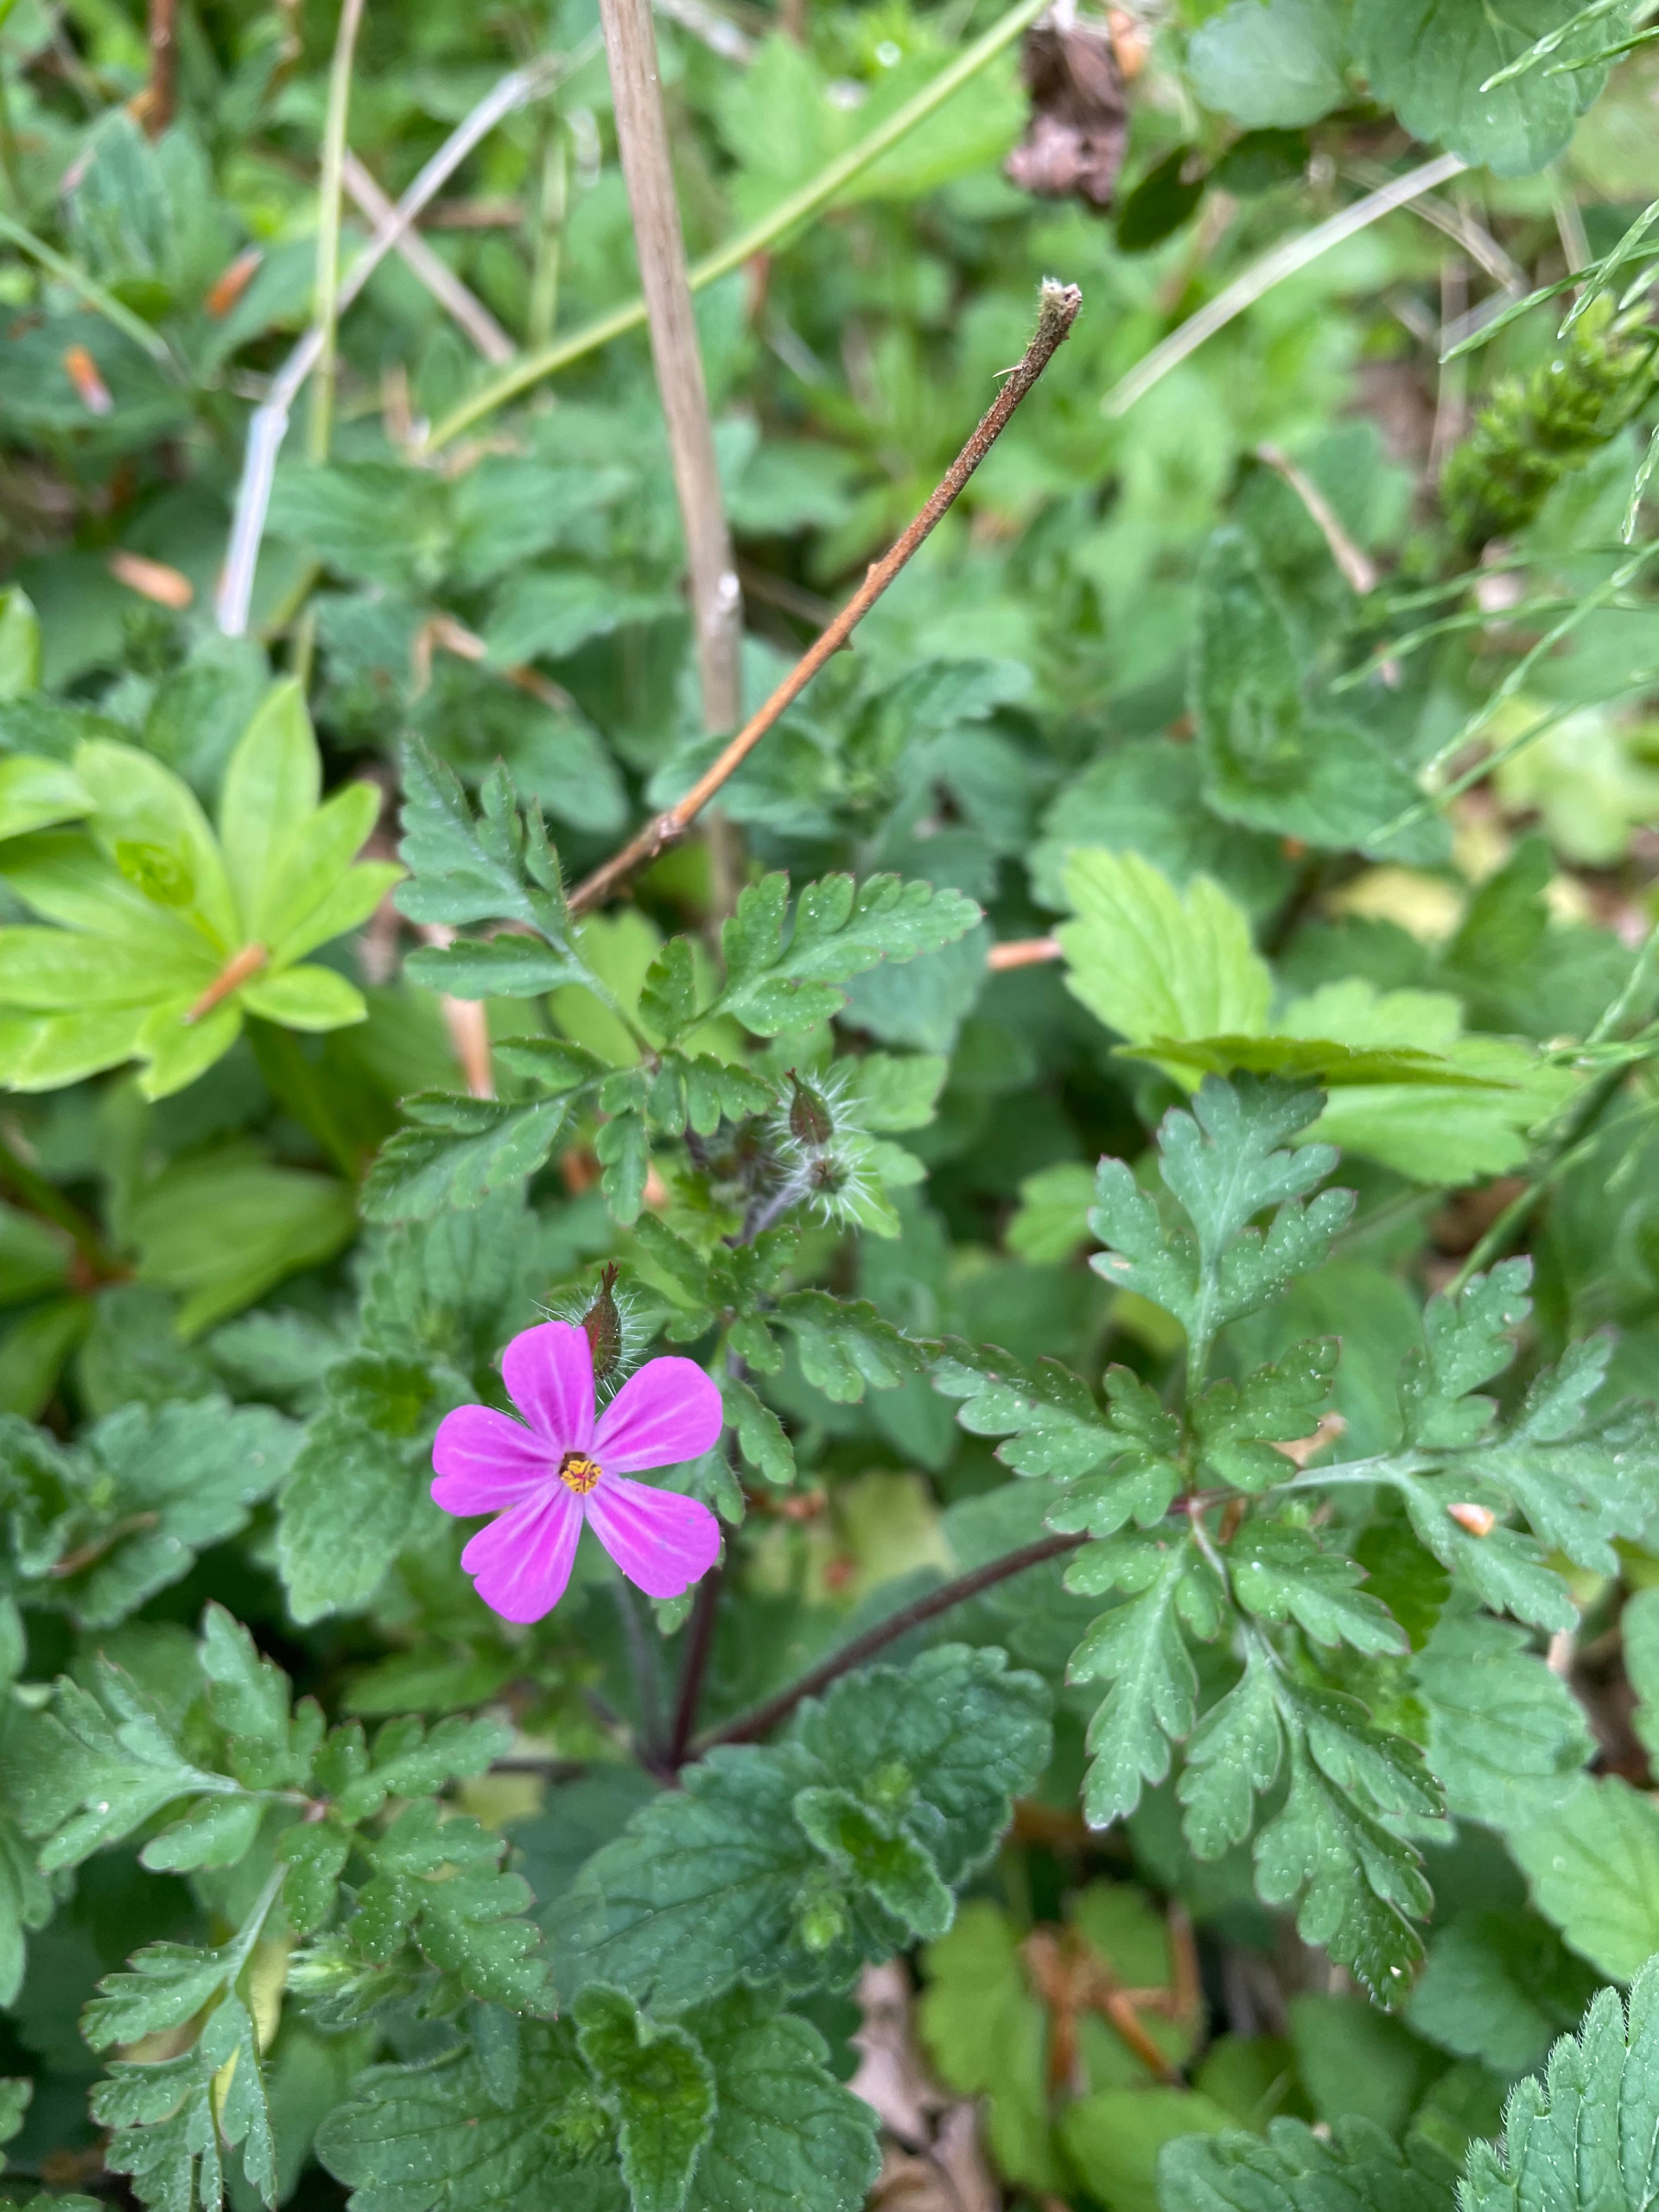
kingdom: Plantae
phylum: Tracheophyta
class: Magnoliopsida
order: Geraniales
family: Geraniaceae
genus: Geranium
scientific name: Geranium robertianum
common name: Stinkende storkenæb
